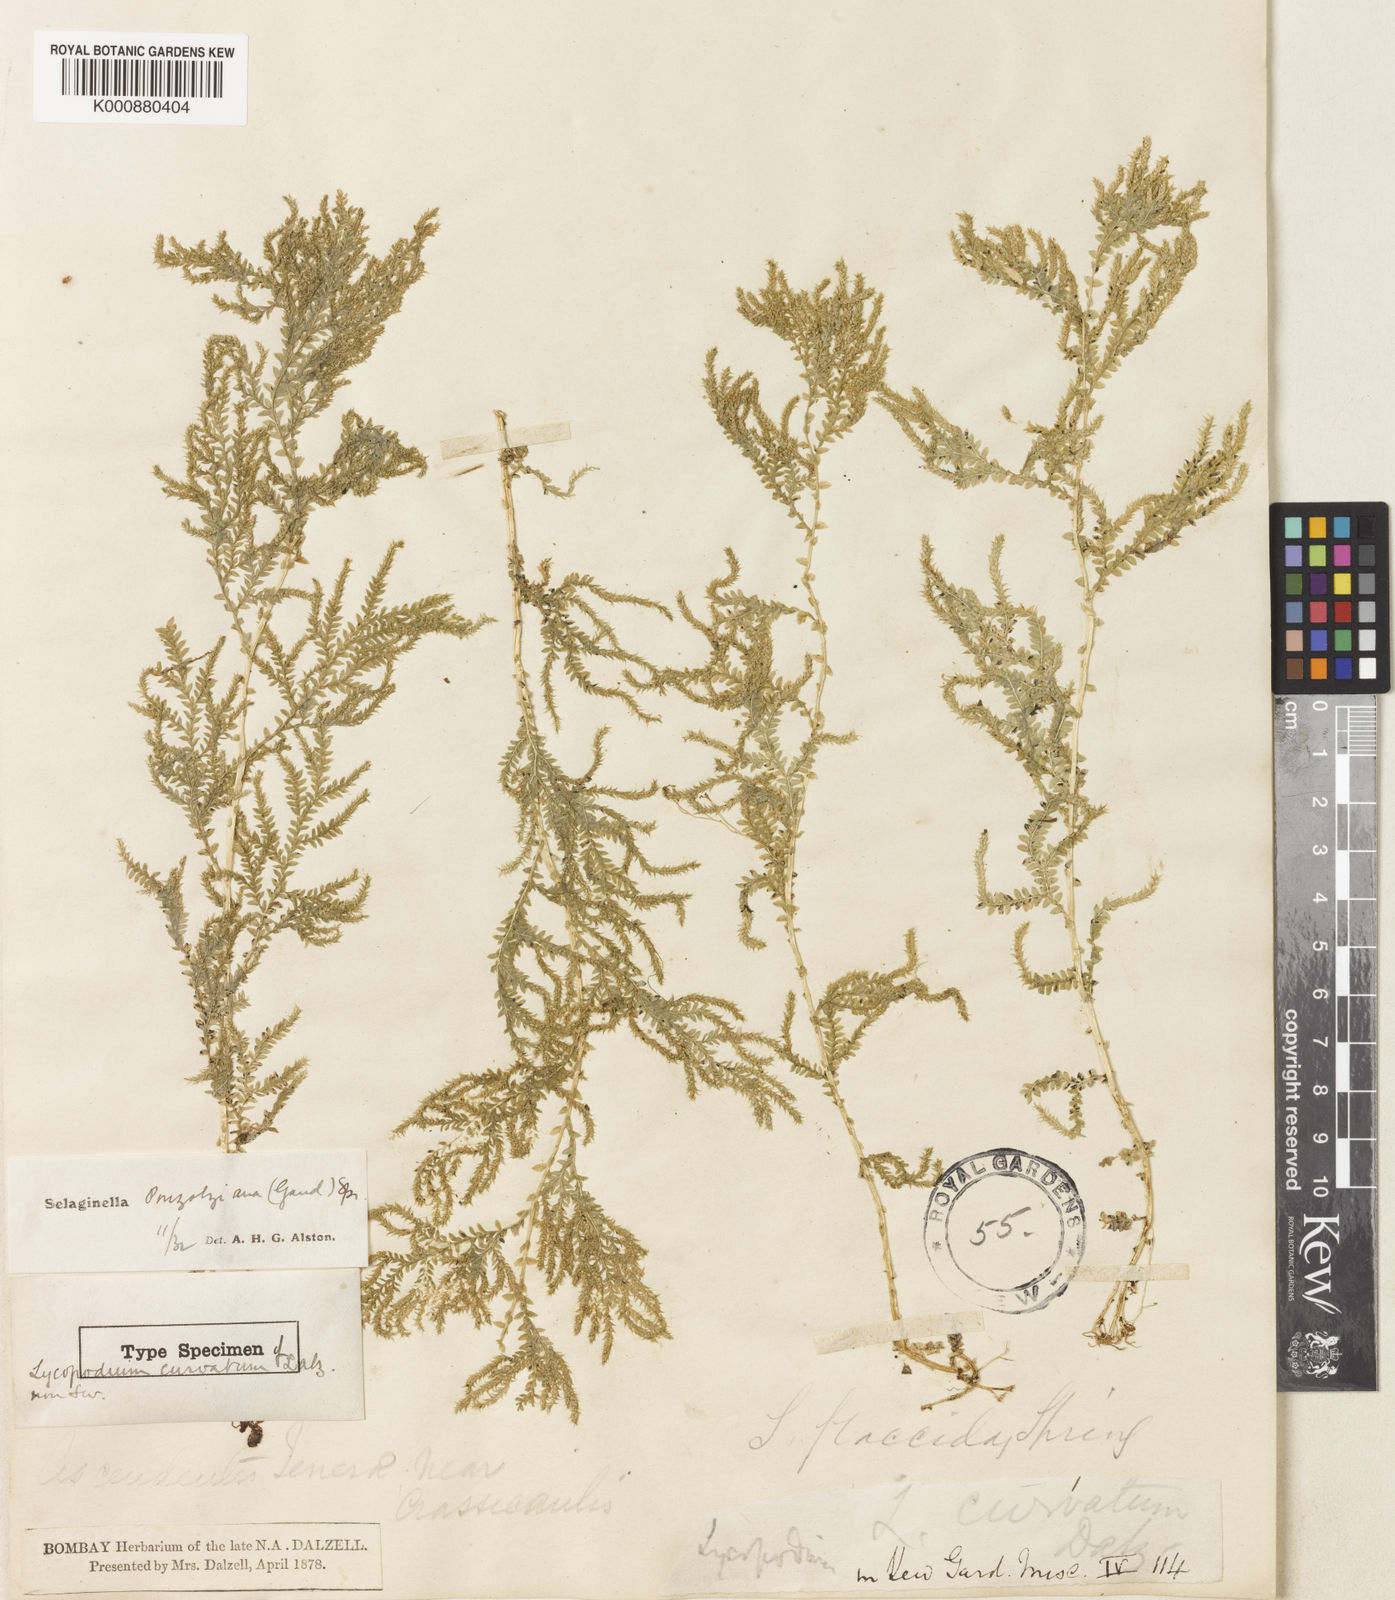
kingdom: Plantae
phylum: Tracheophyta
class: Lycopodiopsida
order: Selaginellales
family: Selaginellaceae
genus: Selaginella
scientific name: Selaginella delicatula
